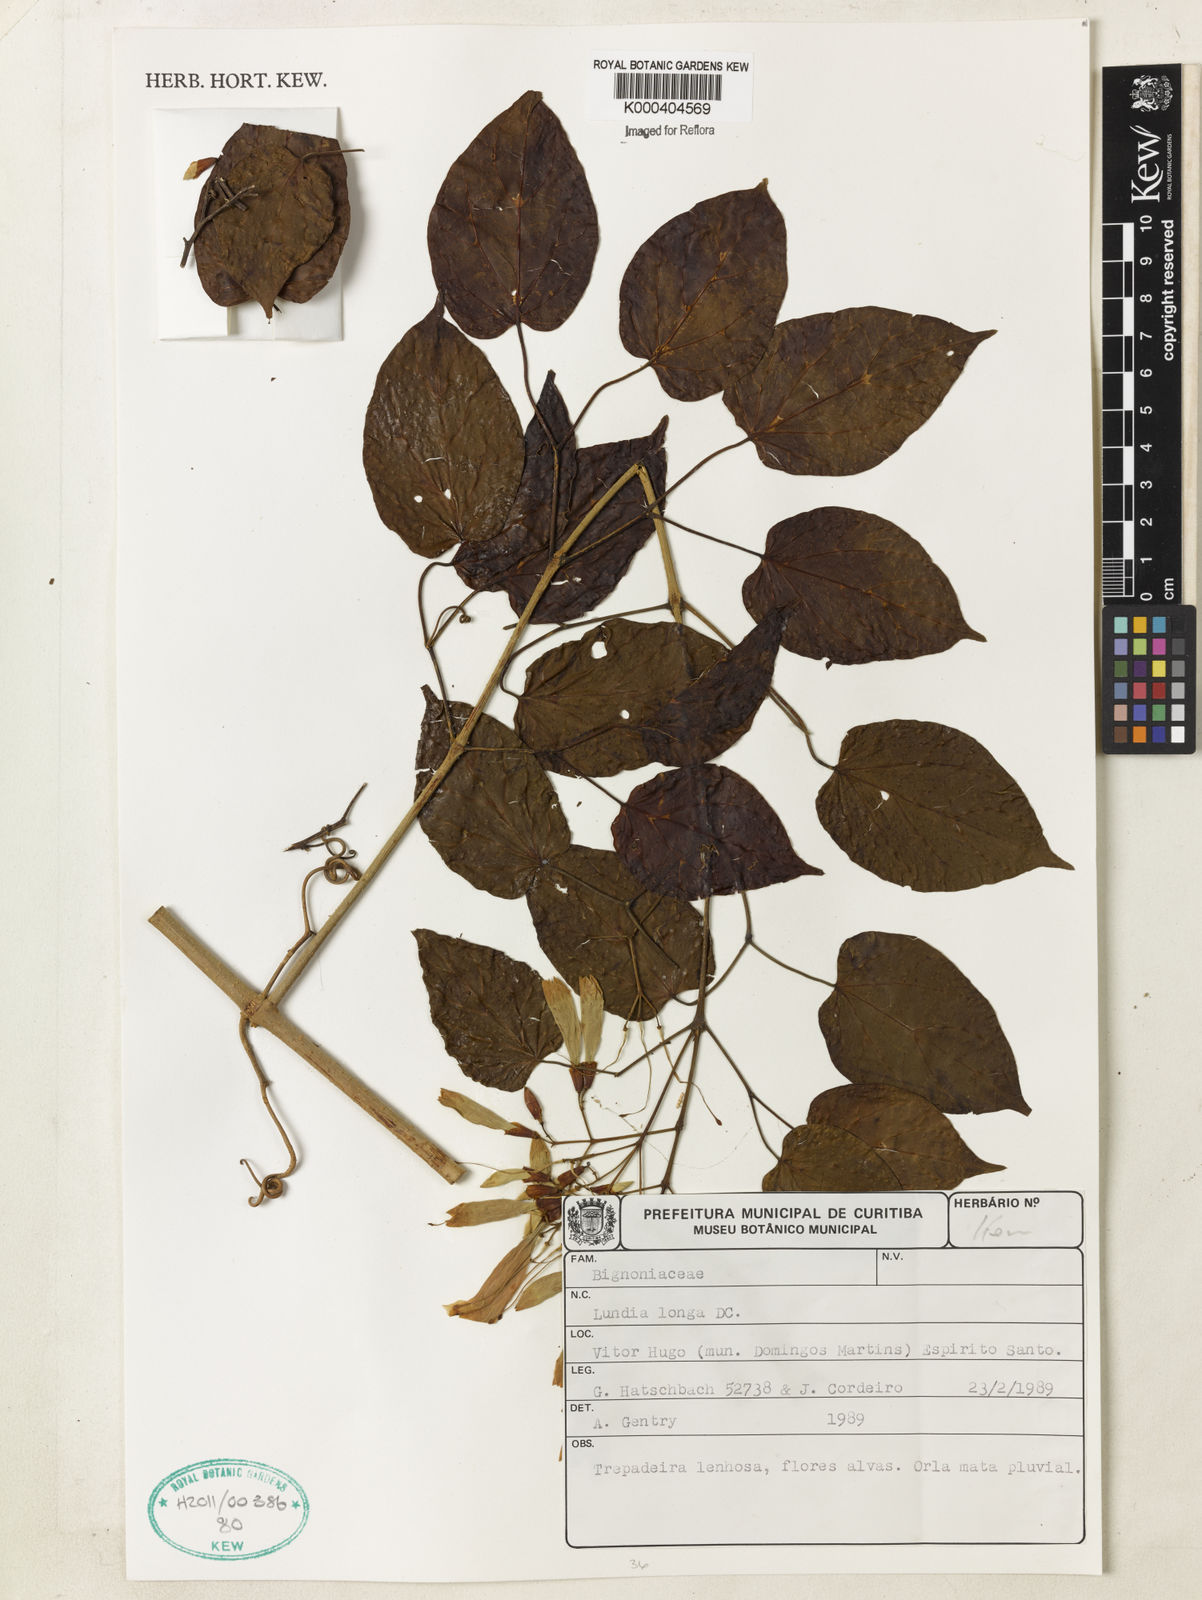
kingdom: Plantae
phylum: Tracheophyta
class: Magnoliopsida
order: Lamiales
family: Bignoniaceae
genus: Lundia
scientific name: Lundia longa
